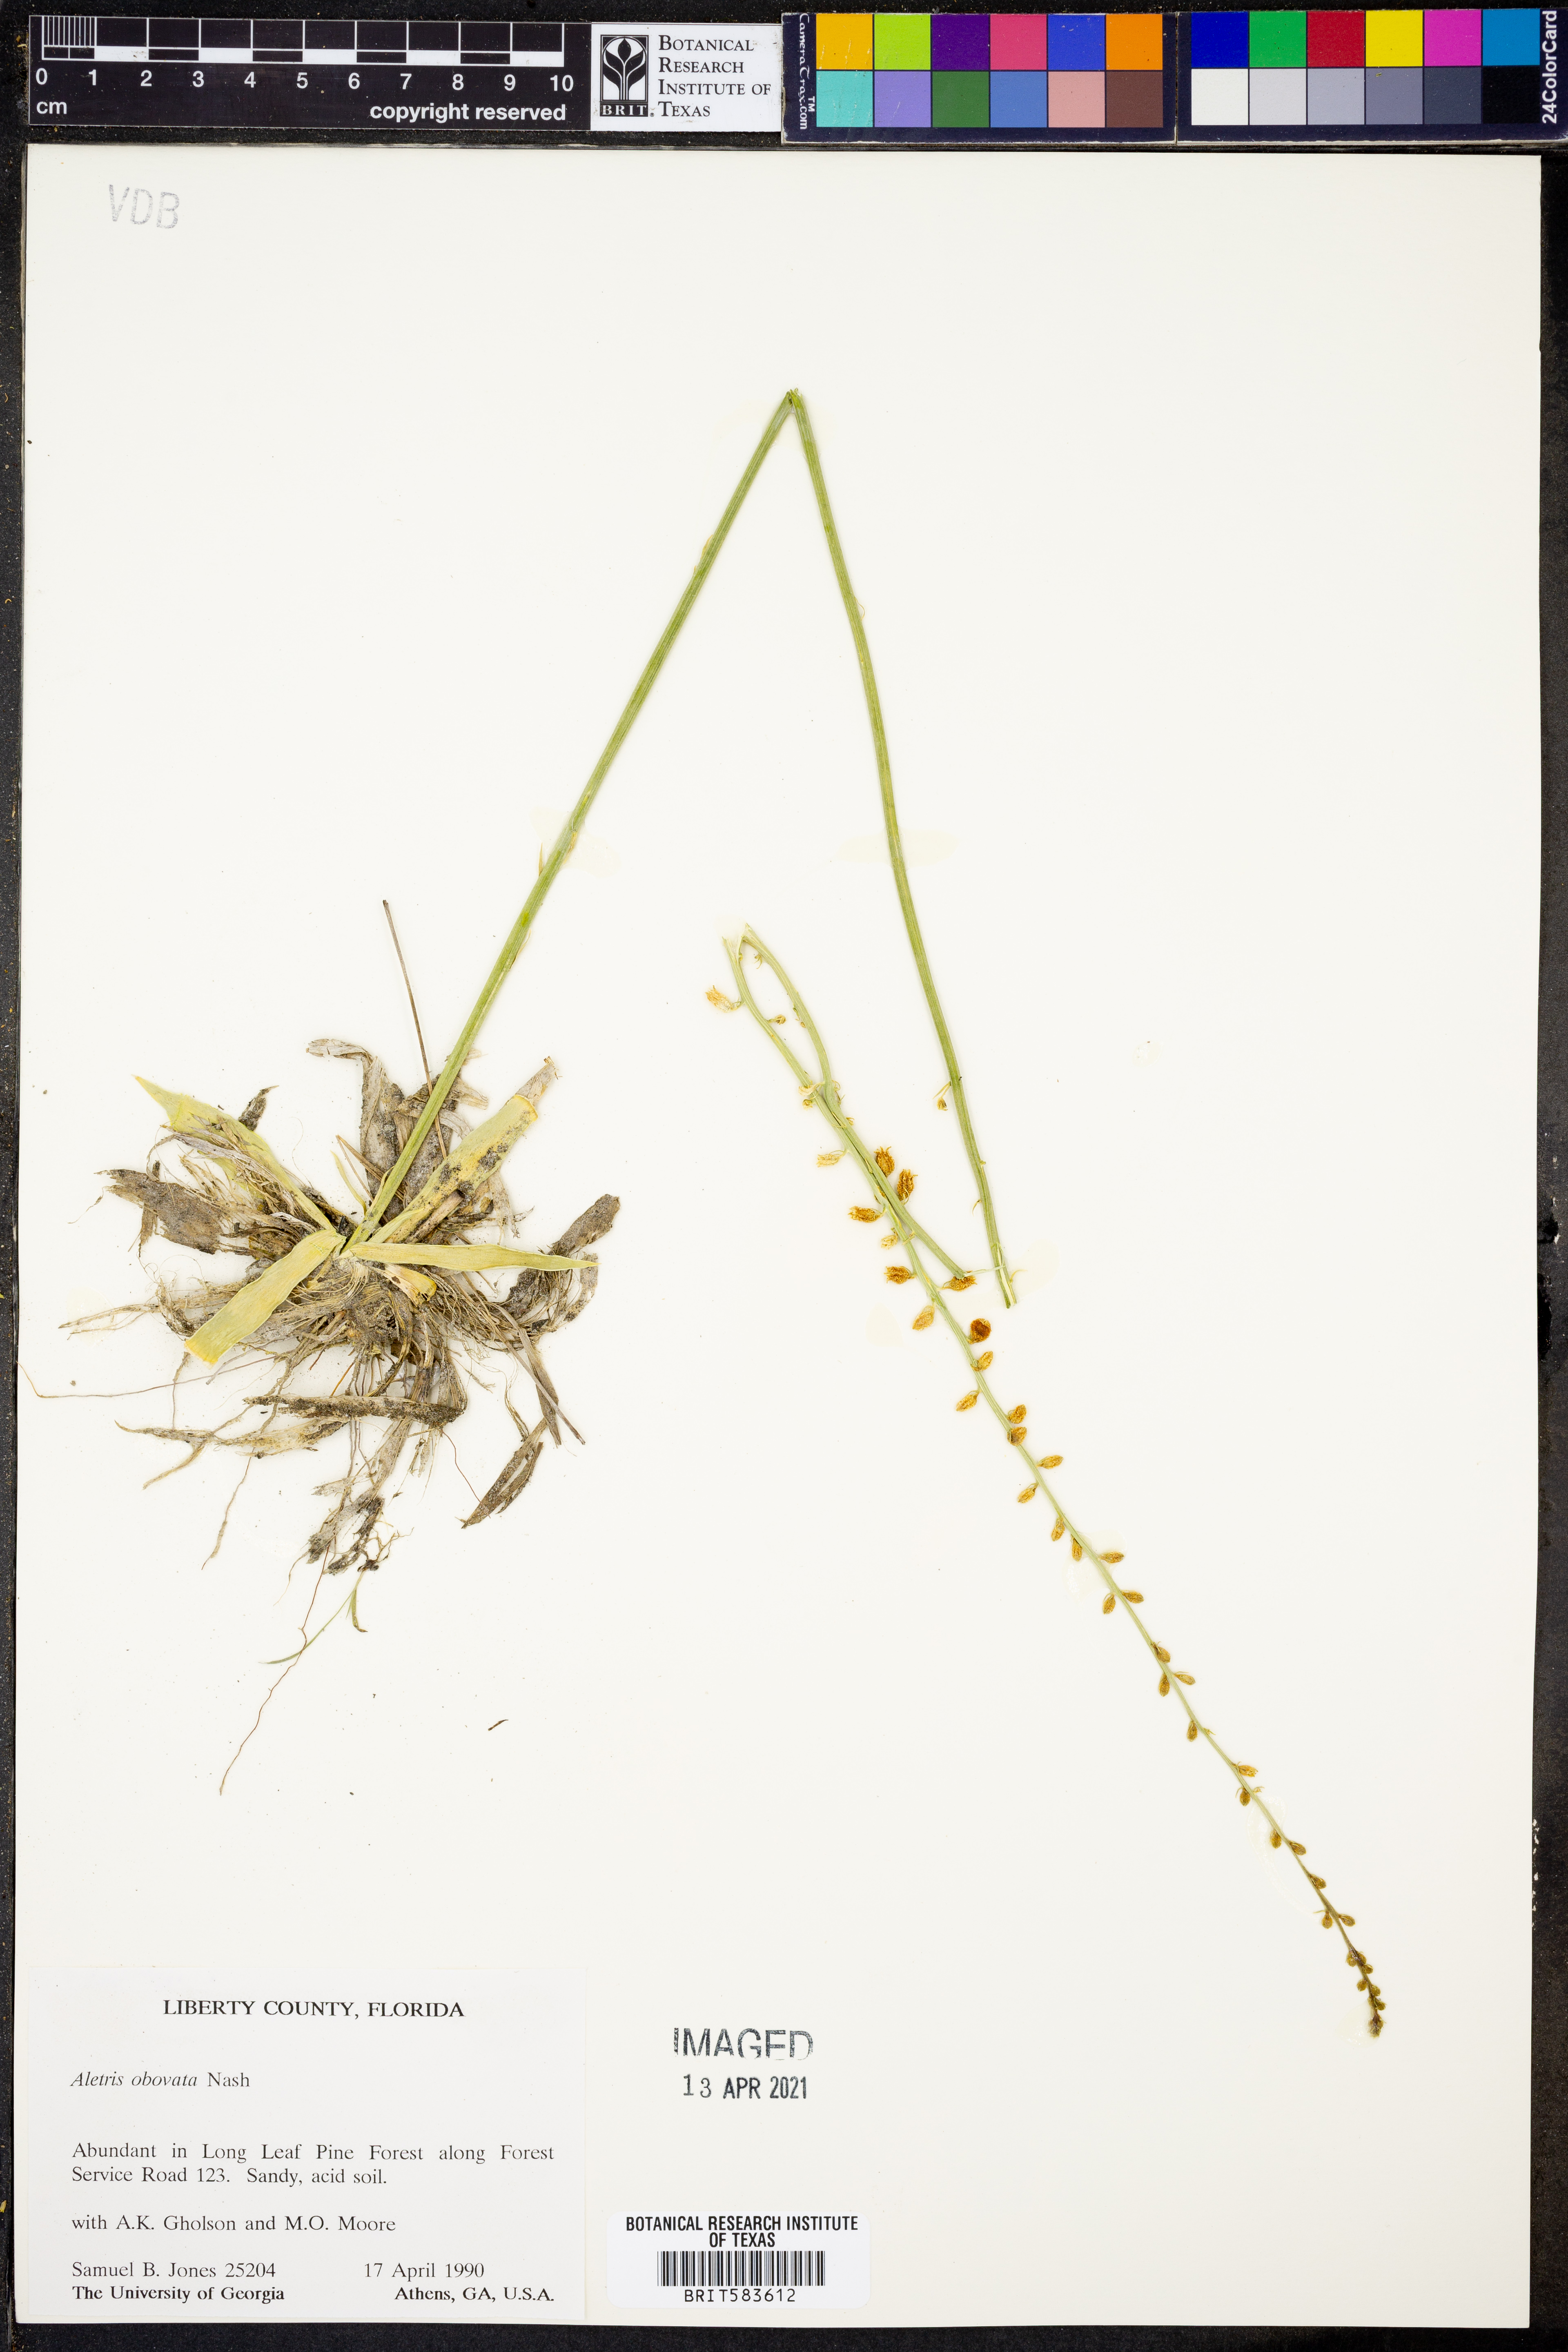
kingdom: Plantae
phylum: Tracheophyta
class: Liliopsida
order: Dioscoreales
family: Nartheciaceae
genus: Aletris
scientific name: Aletris obovata
